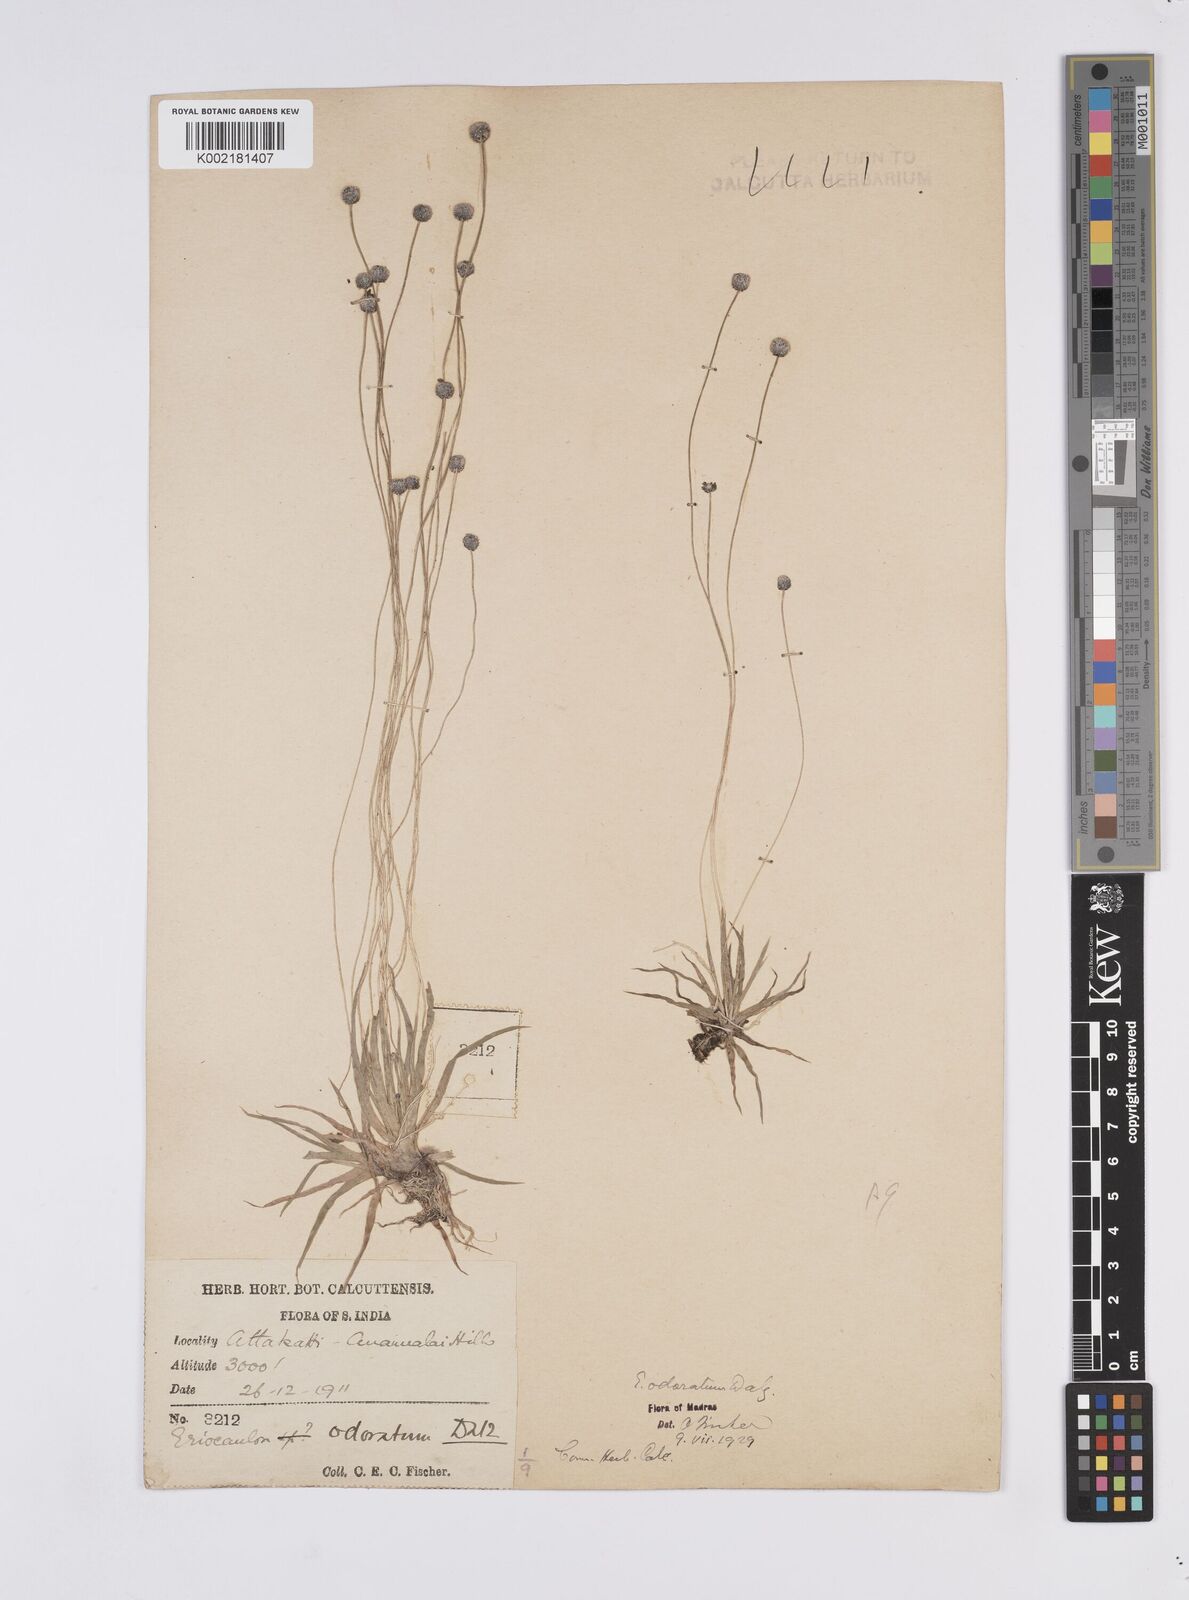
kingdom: Plantae
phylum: Tracheophyta
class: Liliopsida
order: Poales
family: Eriocaulaceae
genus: Eriocaulon
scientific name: Eriocaulon odoratum
